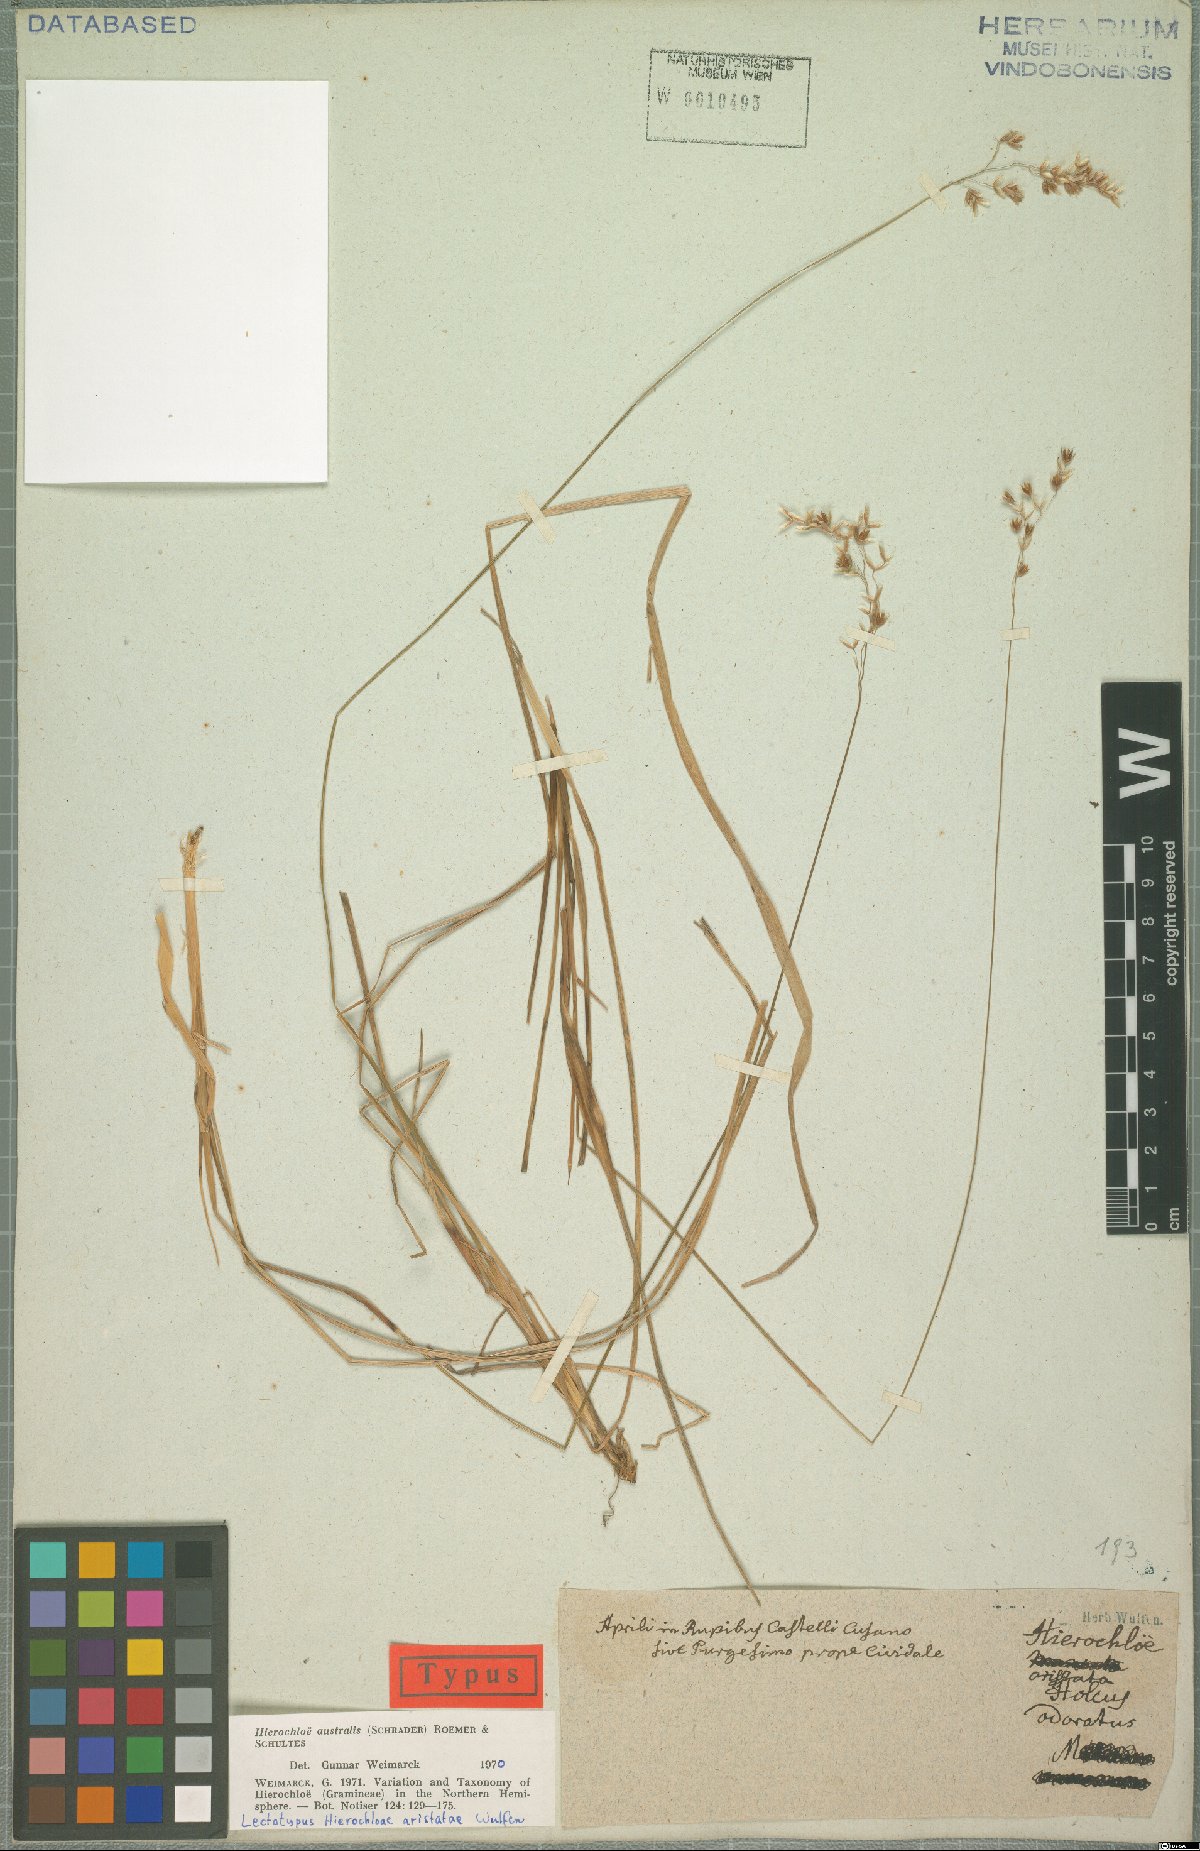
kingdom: Plantae
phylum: Tracheophyta
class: Liliopsida
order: Poales
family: Poaceae
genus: Anthoxanthum
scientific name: Anthoxanthum australe
